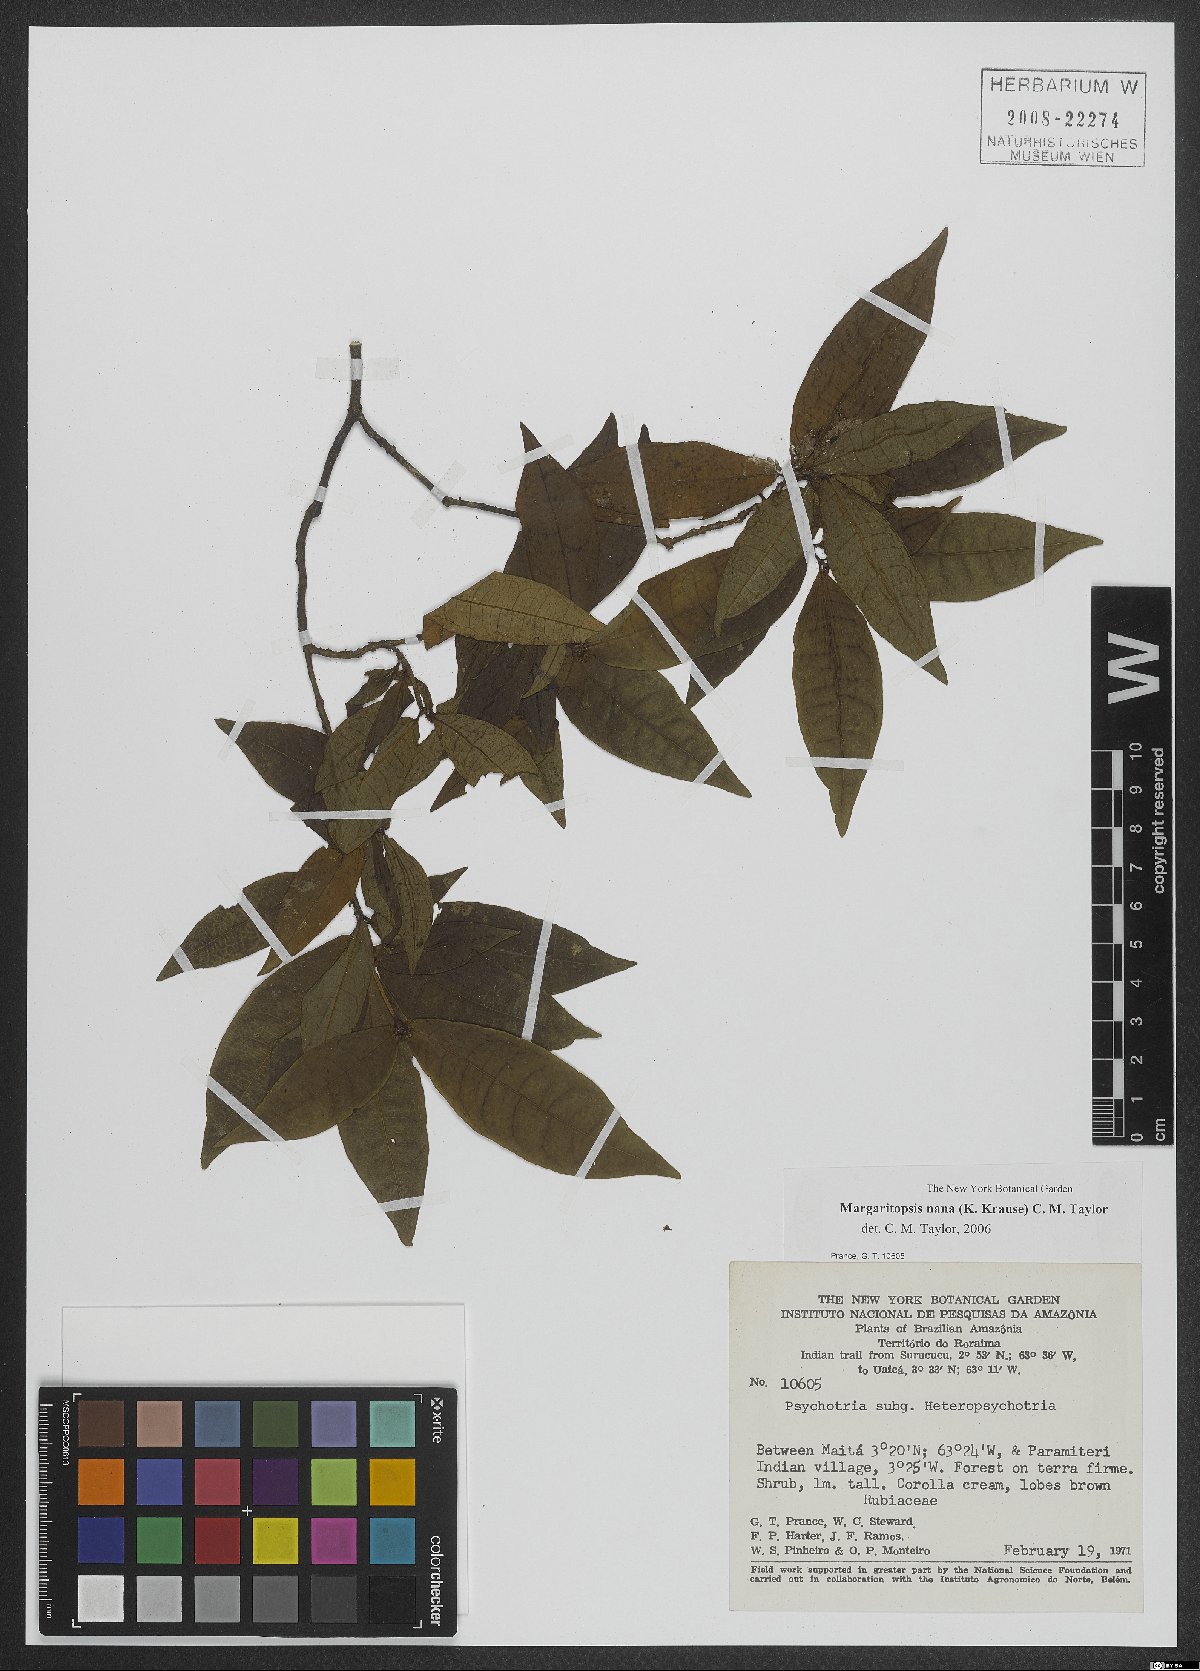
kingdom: Plantae
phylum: Tracheophyta
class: Magnoliopsida
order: Gentianales
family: Rubiaceae
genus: Eumachia
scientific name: Eumachia nana
